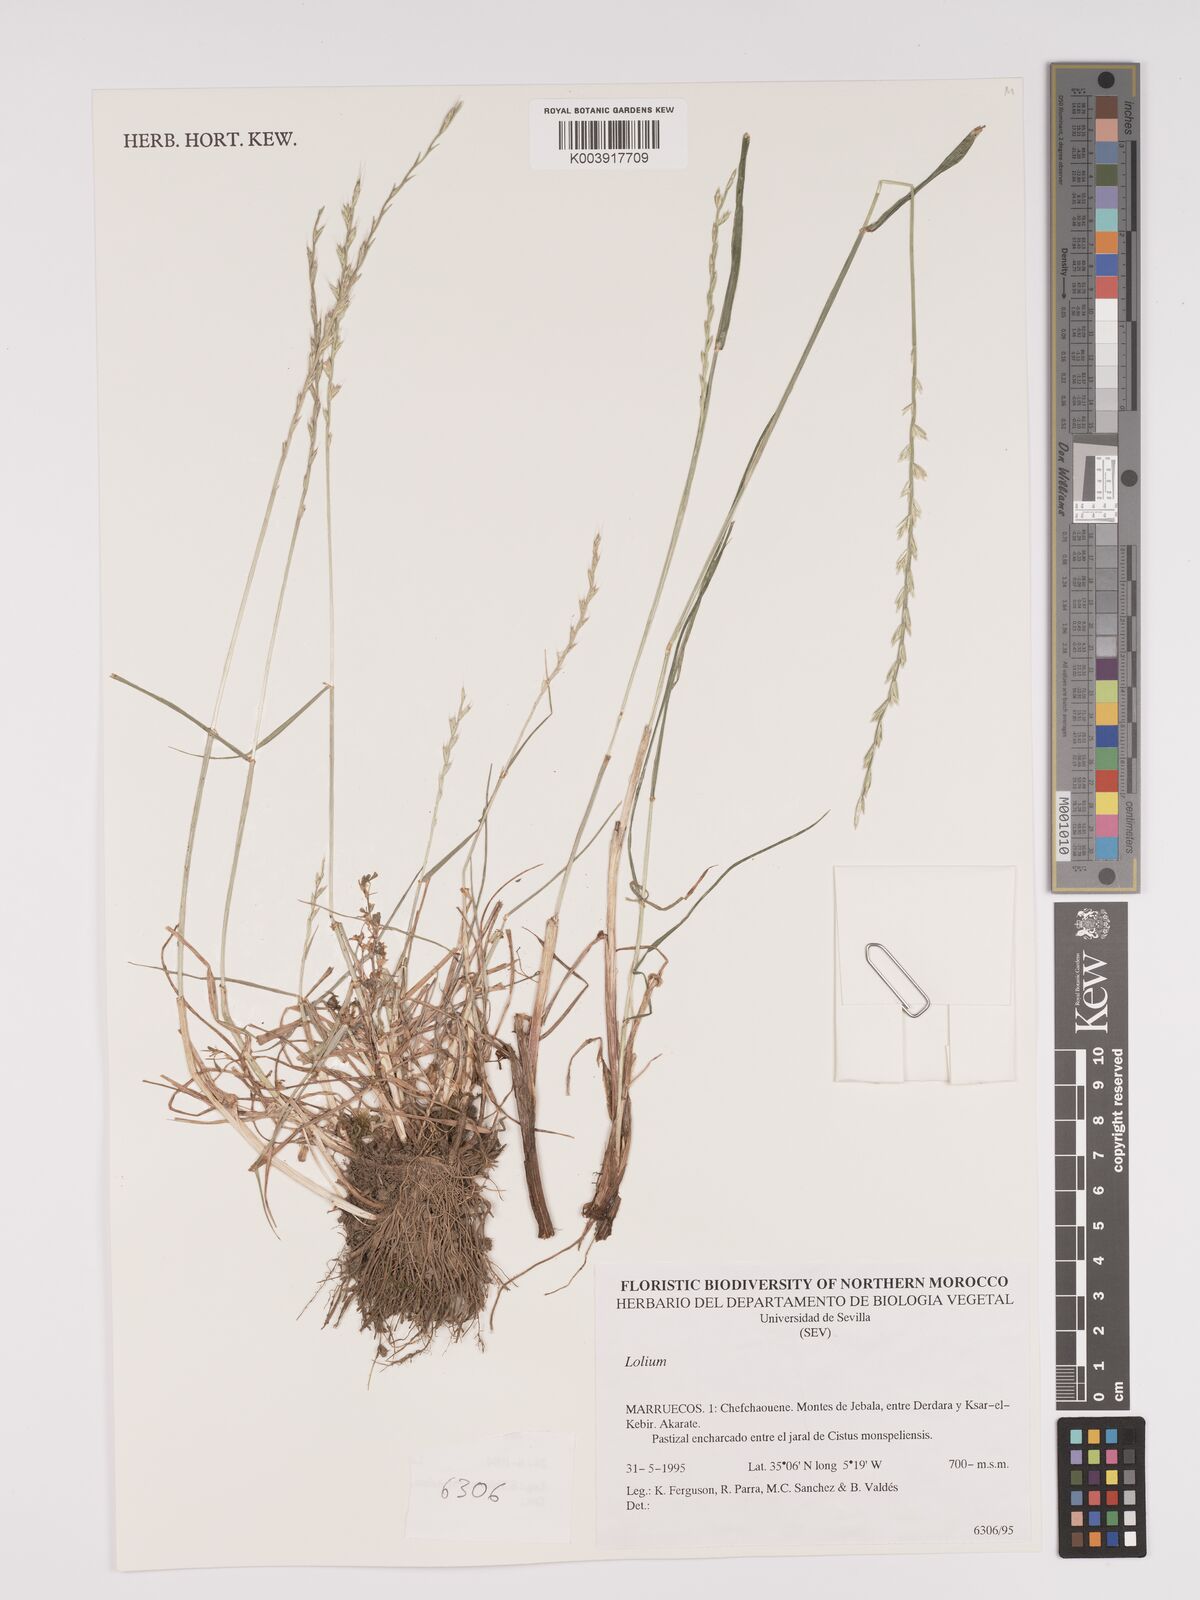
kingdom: Plantae
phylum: Tracheophyta
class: Liliopsida
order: Poales
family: Poaceae
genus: Lolium
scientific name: Lolium
